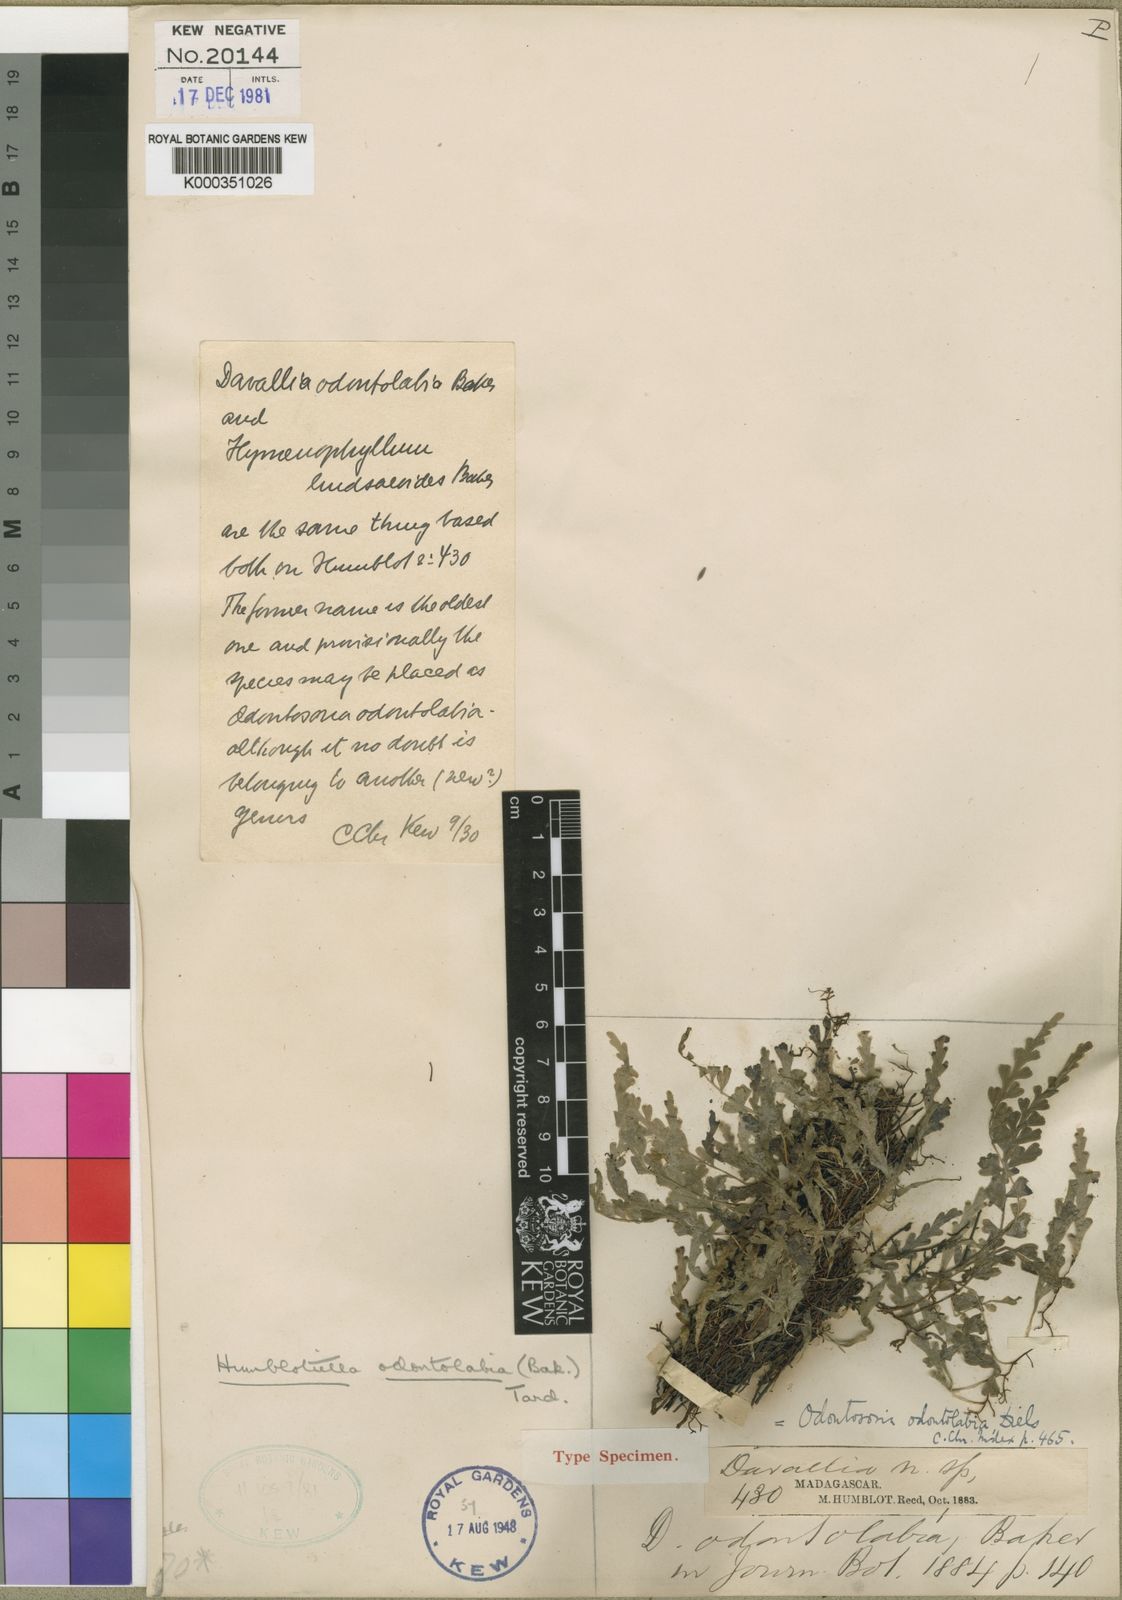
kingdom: Plantae
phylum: Tracheophyta
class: Polypodiopsida
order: Polypodiales
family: Lindsaeaceae
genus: Odontosoria
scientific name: Odontosoria odontolabia
